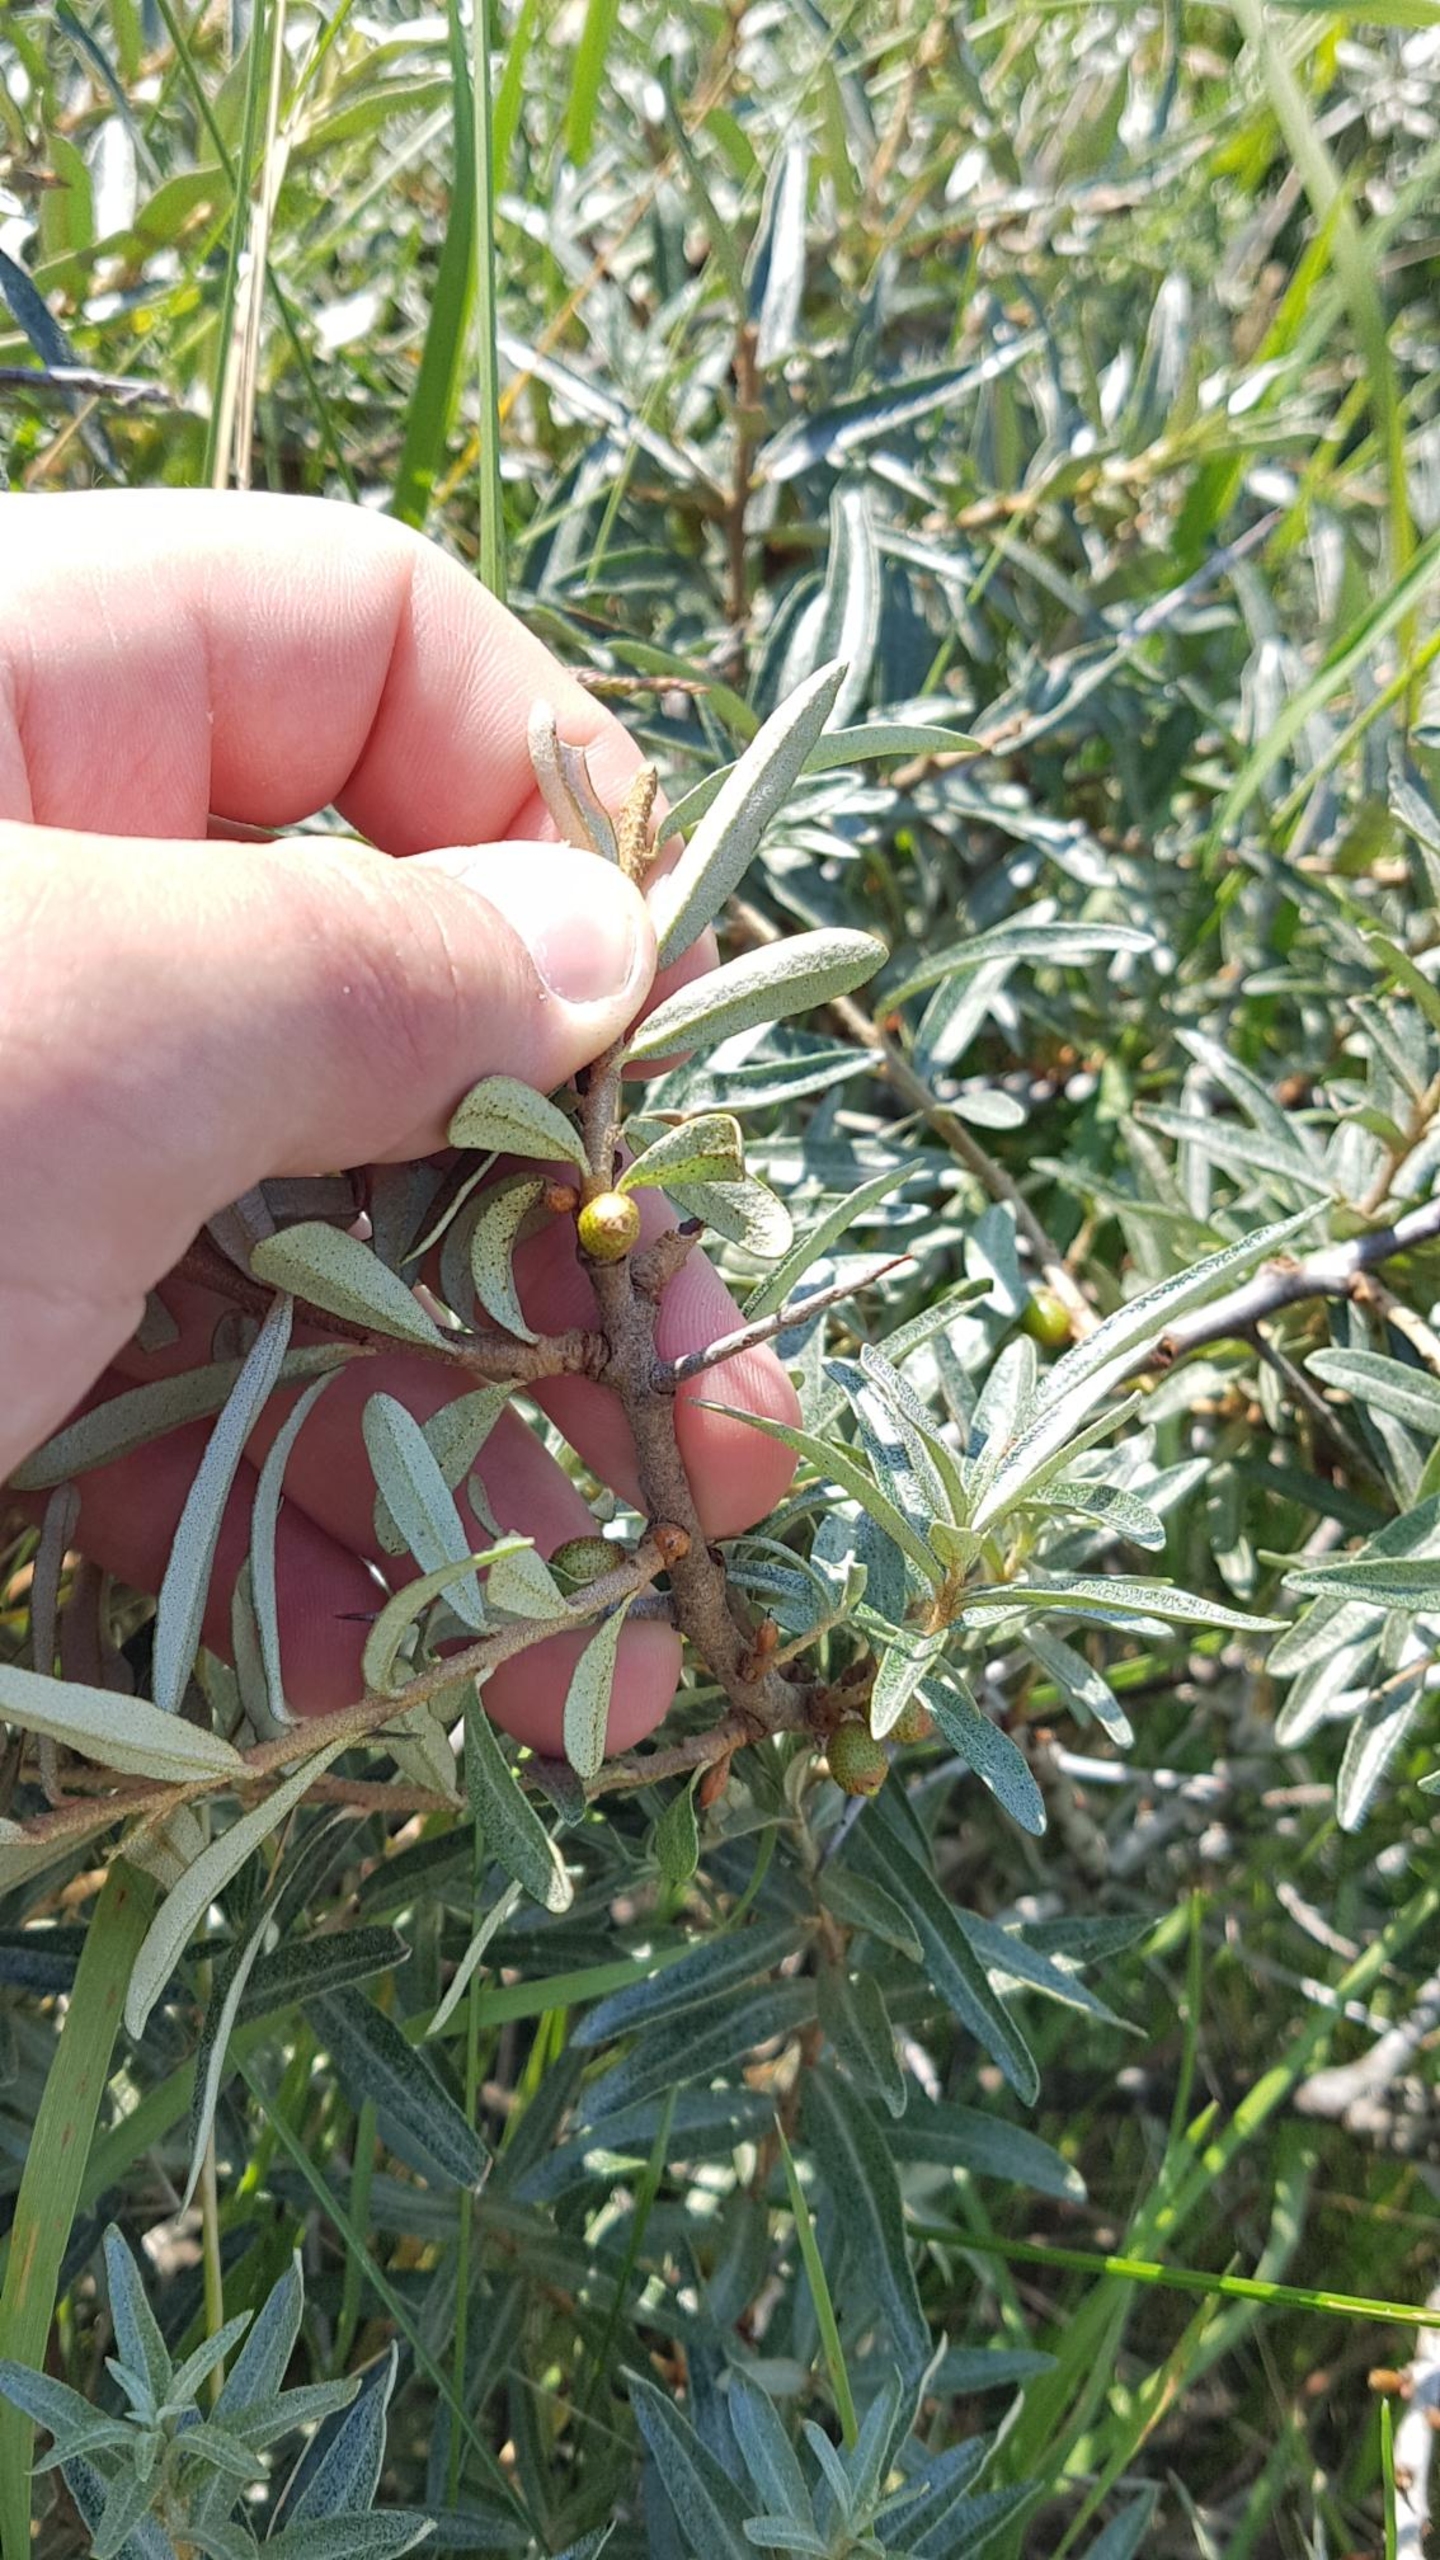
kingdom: Plantae
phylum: Tracheophyta
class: Magnoliopsida
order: Rosales
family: Elaeagnaceae
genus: Hippophae
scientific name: Hippophae rhamnoides
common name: Havtorn
